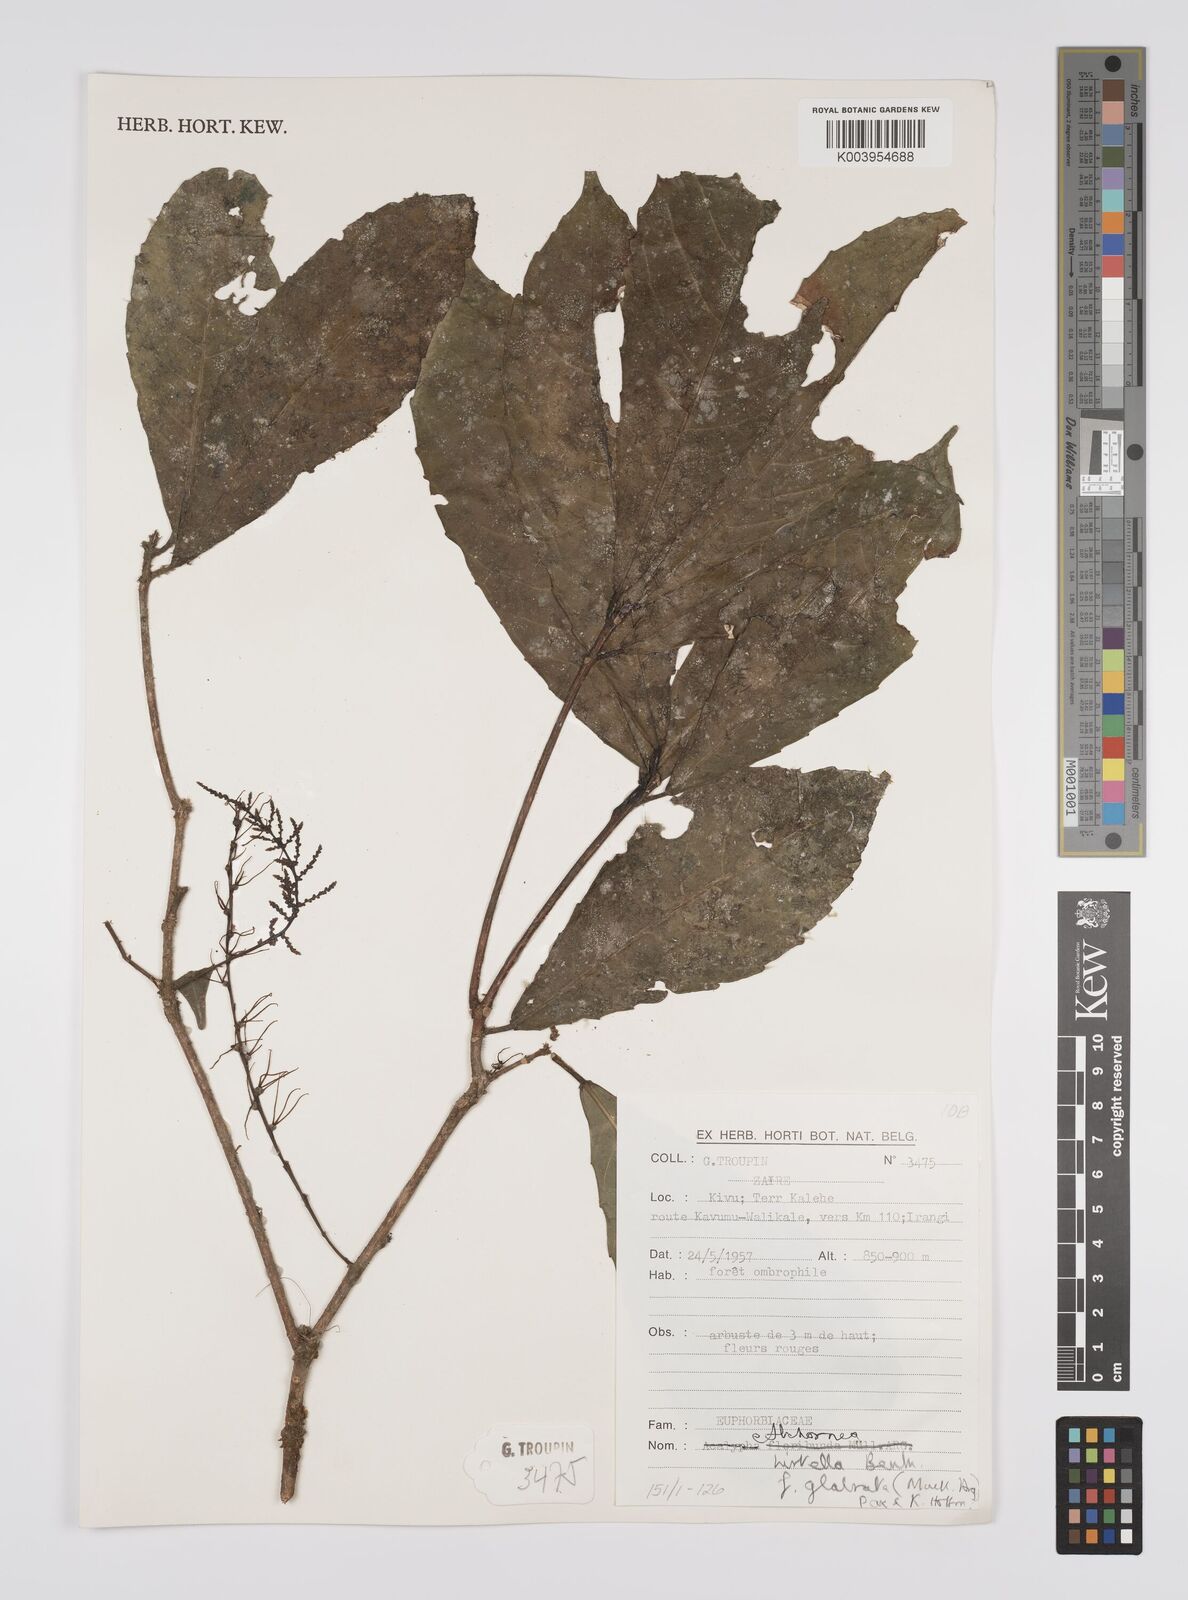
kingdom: Plantae
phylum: Tracheophyta
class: Magnoliopsida
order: Malpighiales
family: Euphorbiaceae
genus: Alchornea
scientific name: Alchornea hirtella
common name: Forest bead-string
